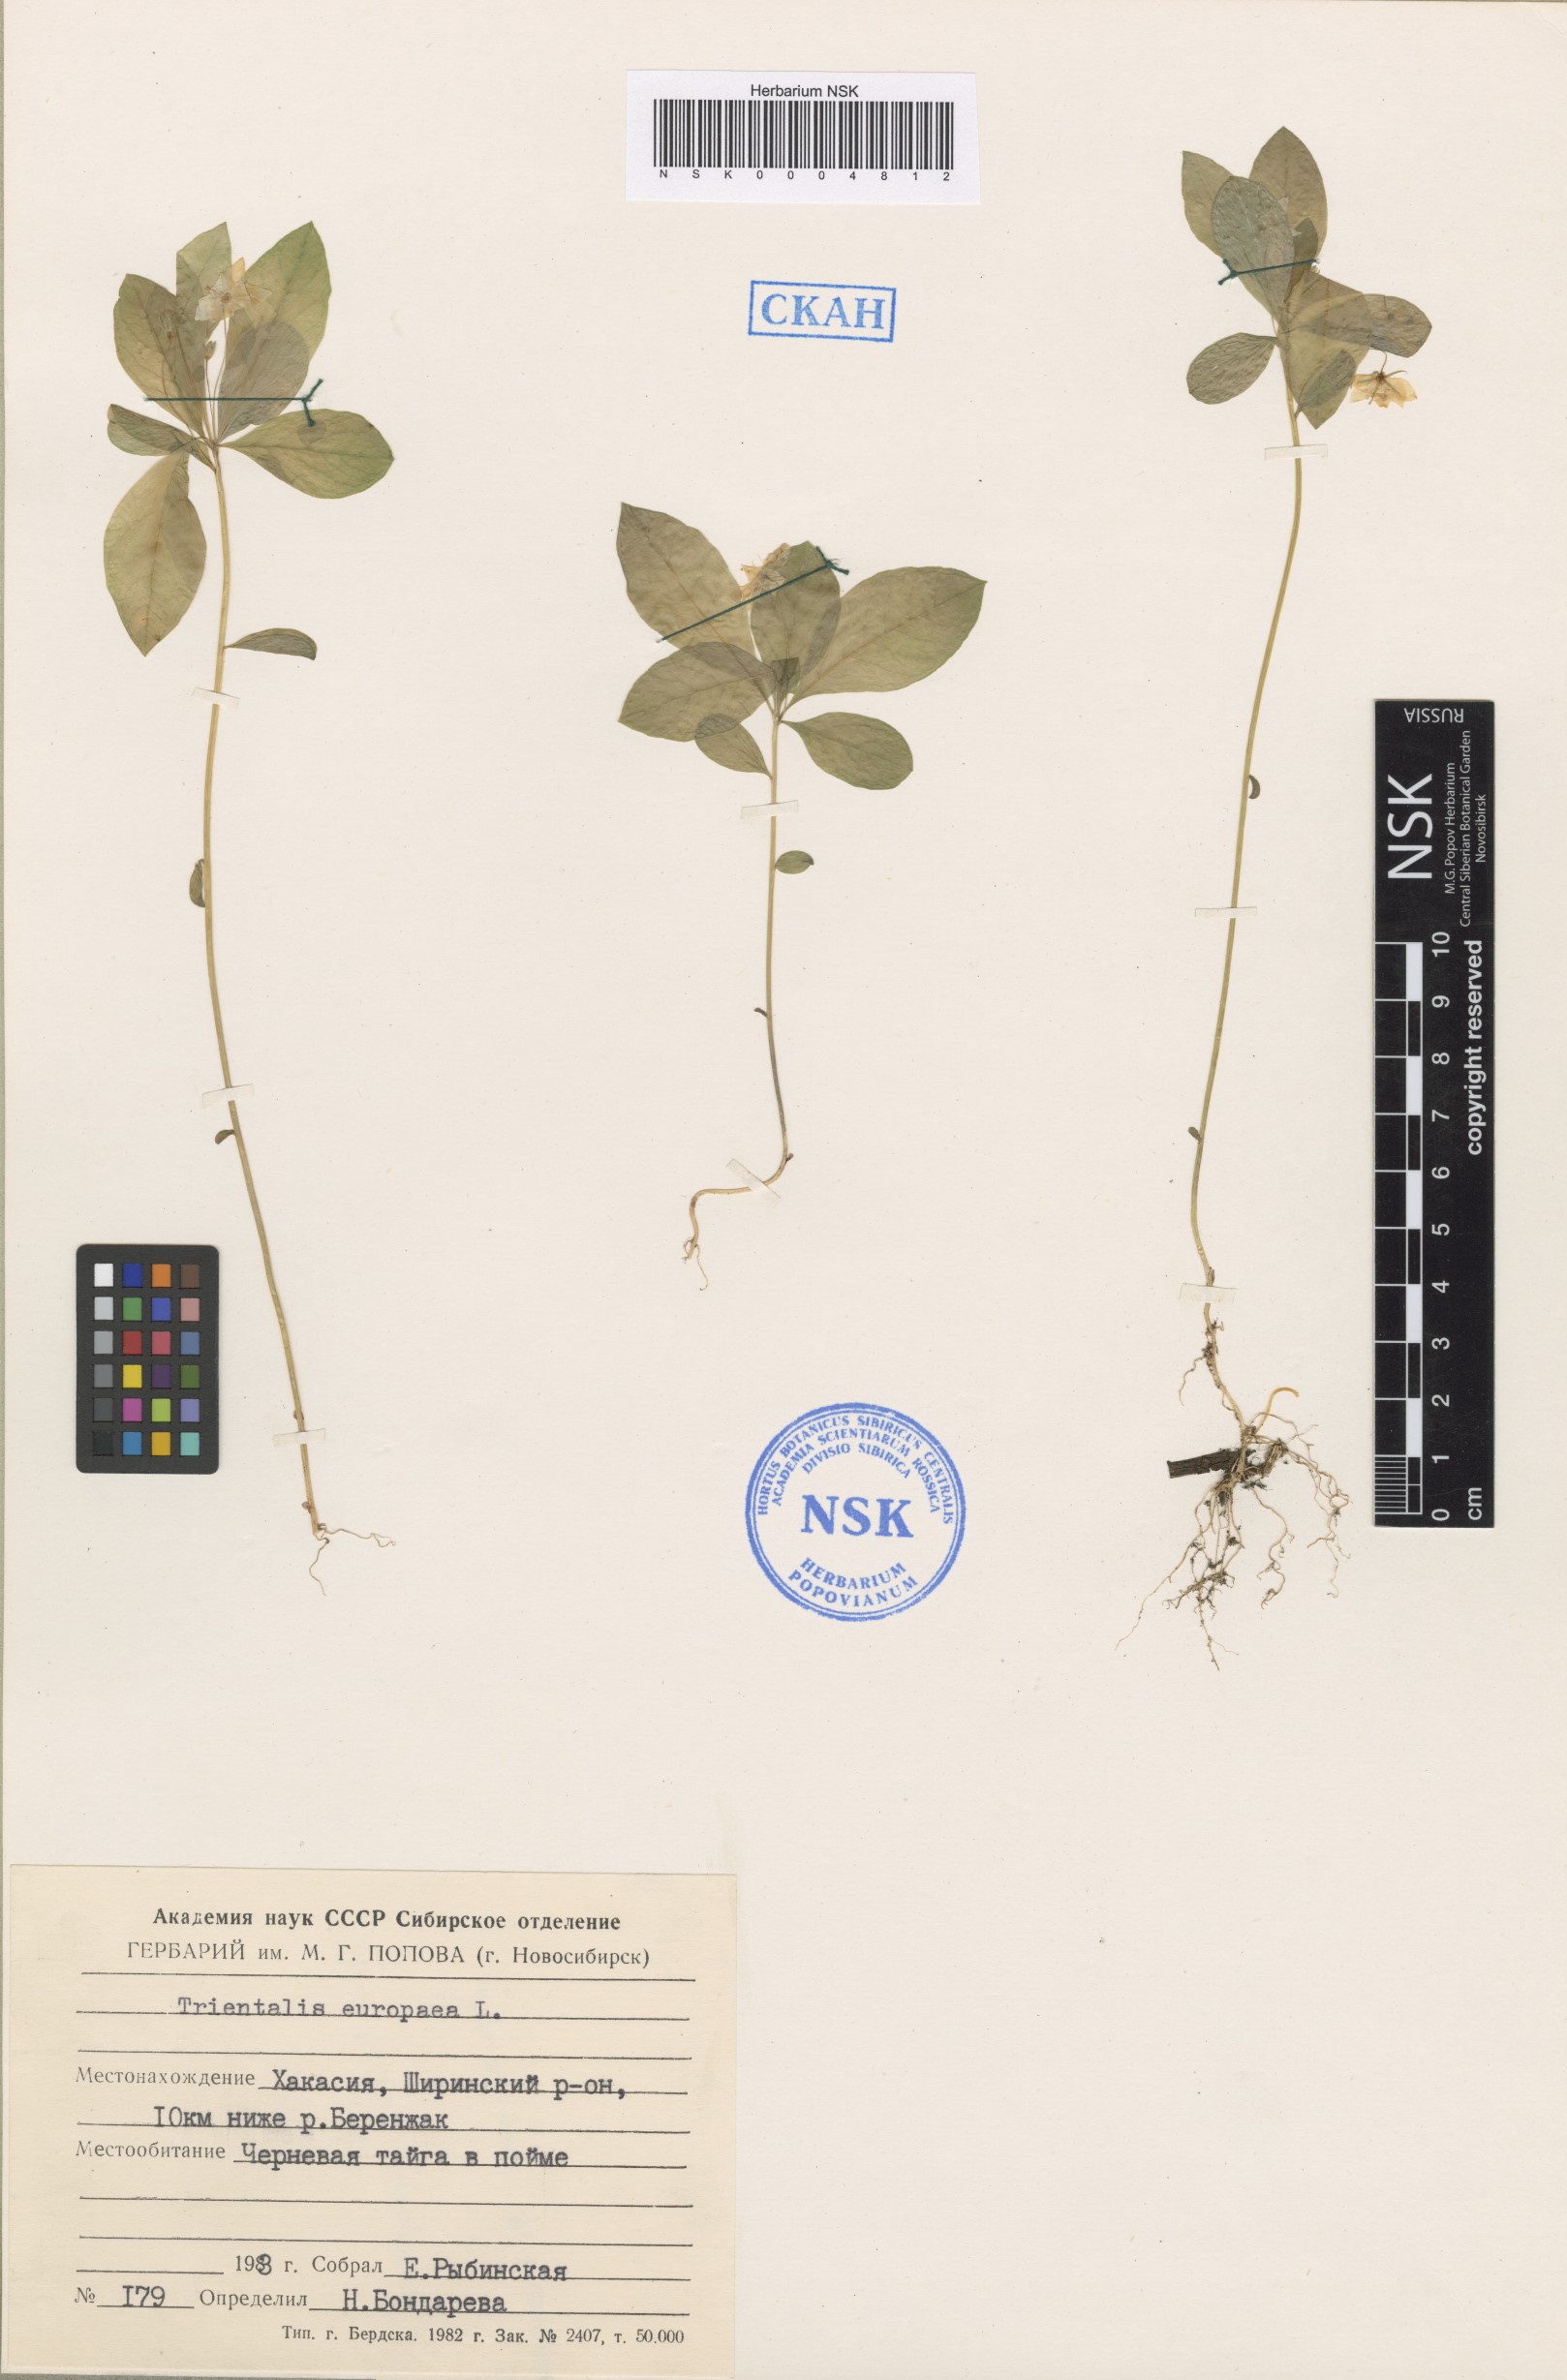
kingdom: Plantae
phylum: Tracheophyta
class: Magnoliopsida
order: Ericales
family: Primulaceae
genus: Lysimachia
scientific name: Lysimachia europaea
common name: Arctic starflower
